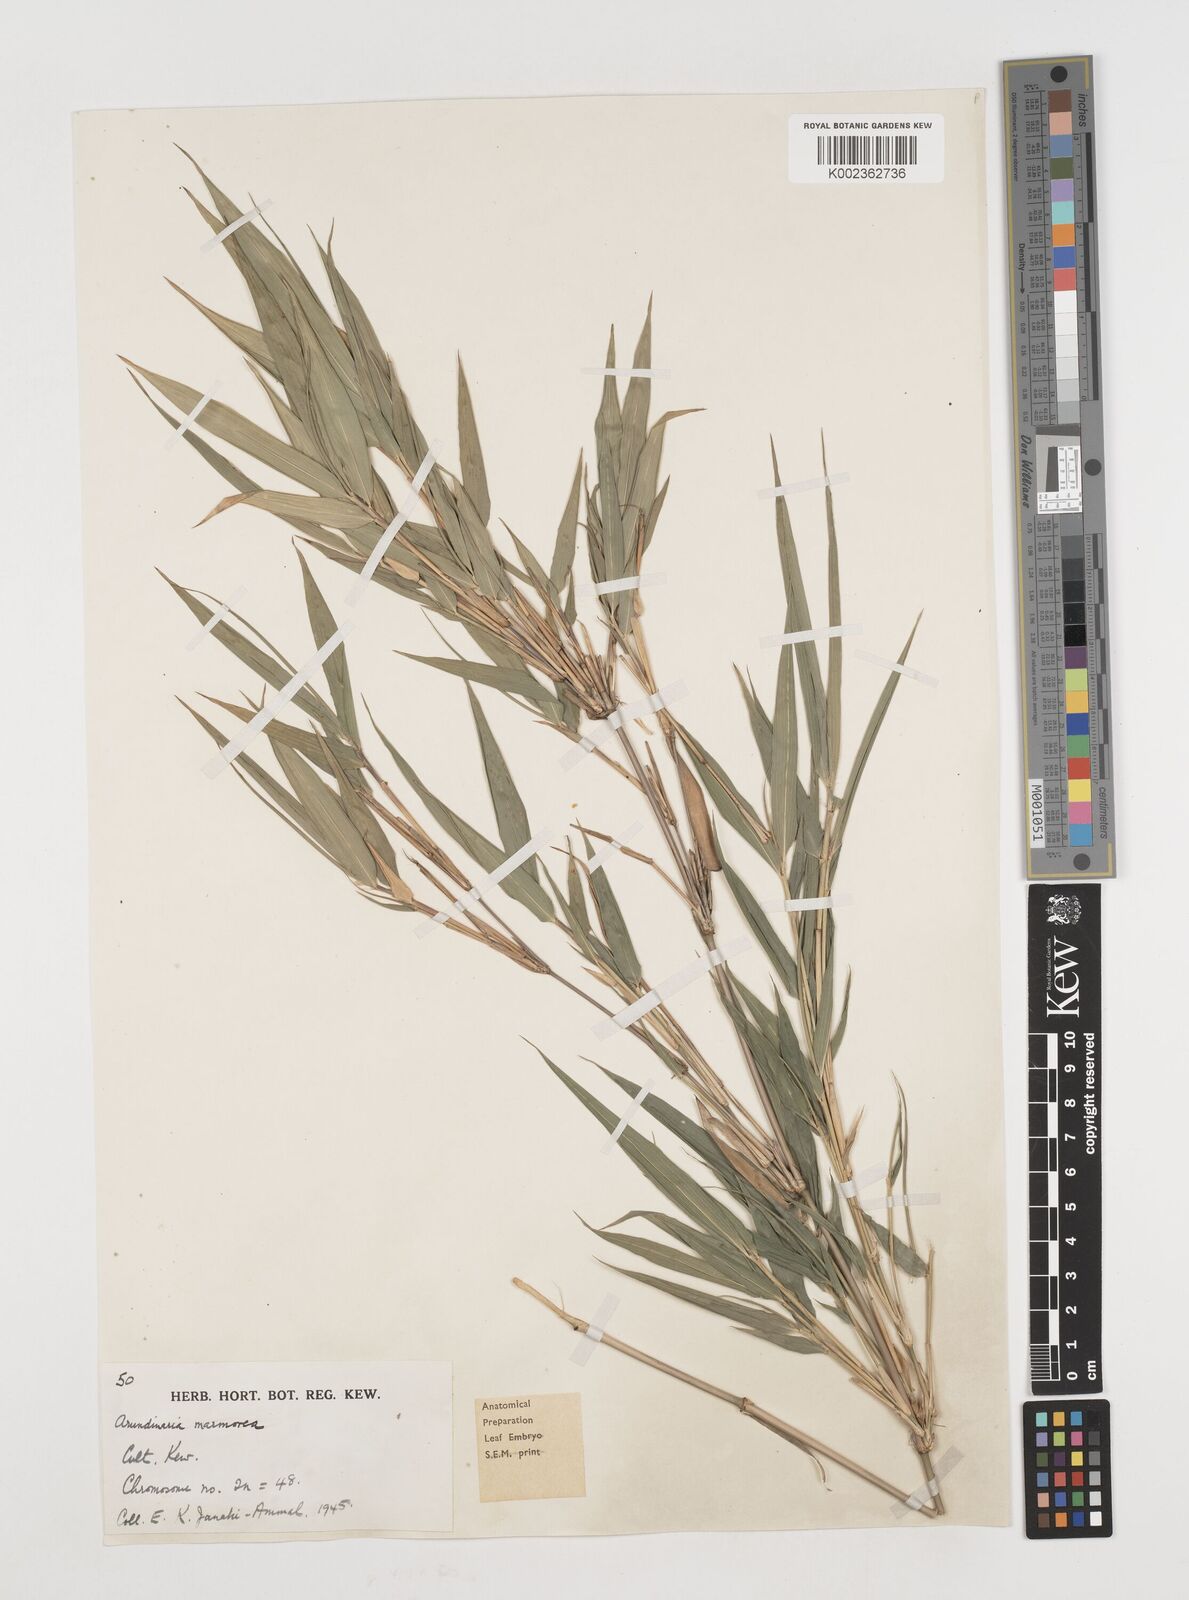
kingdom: Plantae
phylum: Tracheophyta
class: Liliopsida
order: Poales
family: Poaceae
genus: Chimonobambusa
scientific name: Chimonobambusa marmorea
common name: Marbled bamboo
